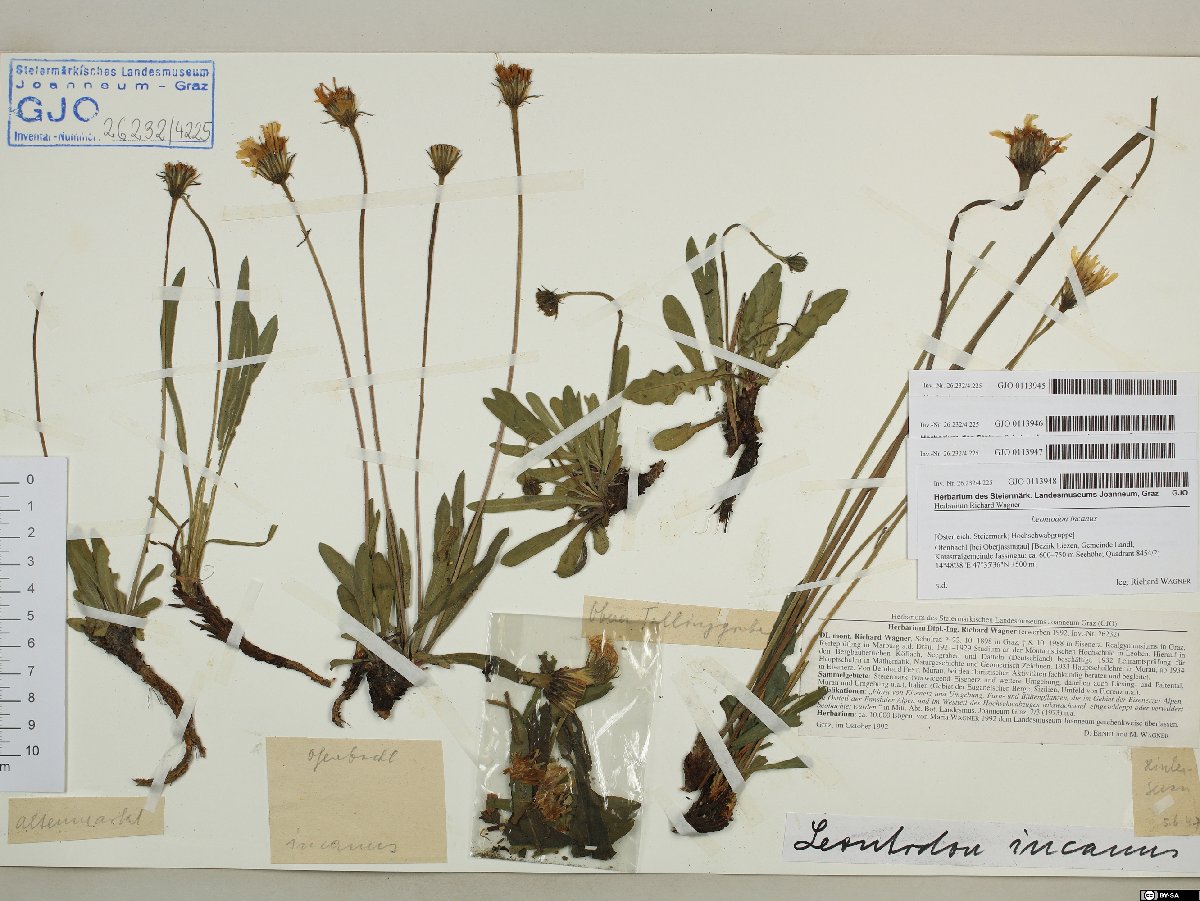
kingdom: Plantae
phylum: Tracheophyta
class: Magnoliopsida
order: Asterales
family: Asteraceae
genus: Leontodon
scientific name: Leontodon incanus
